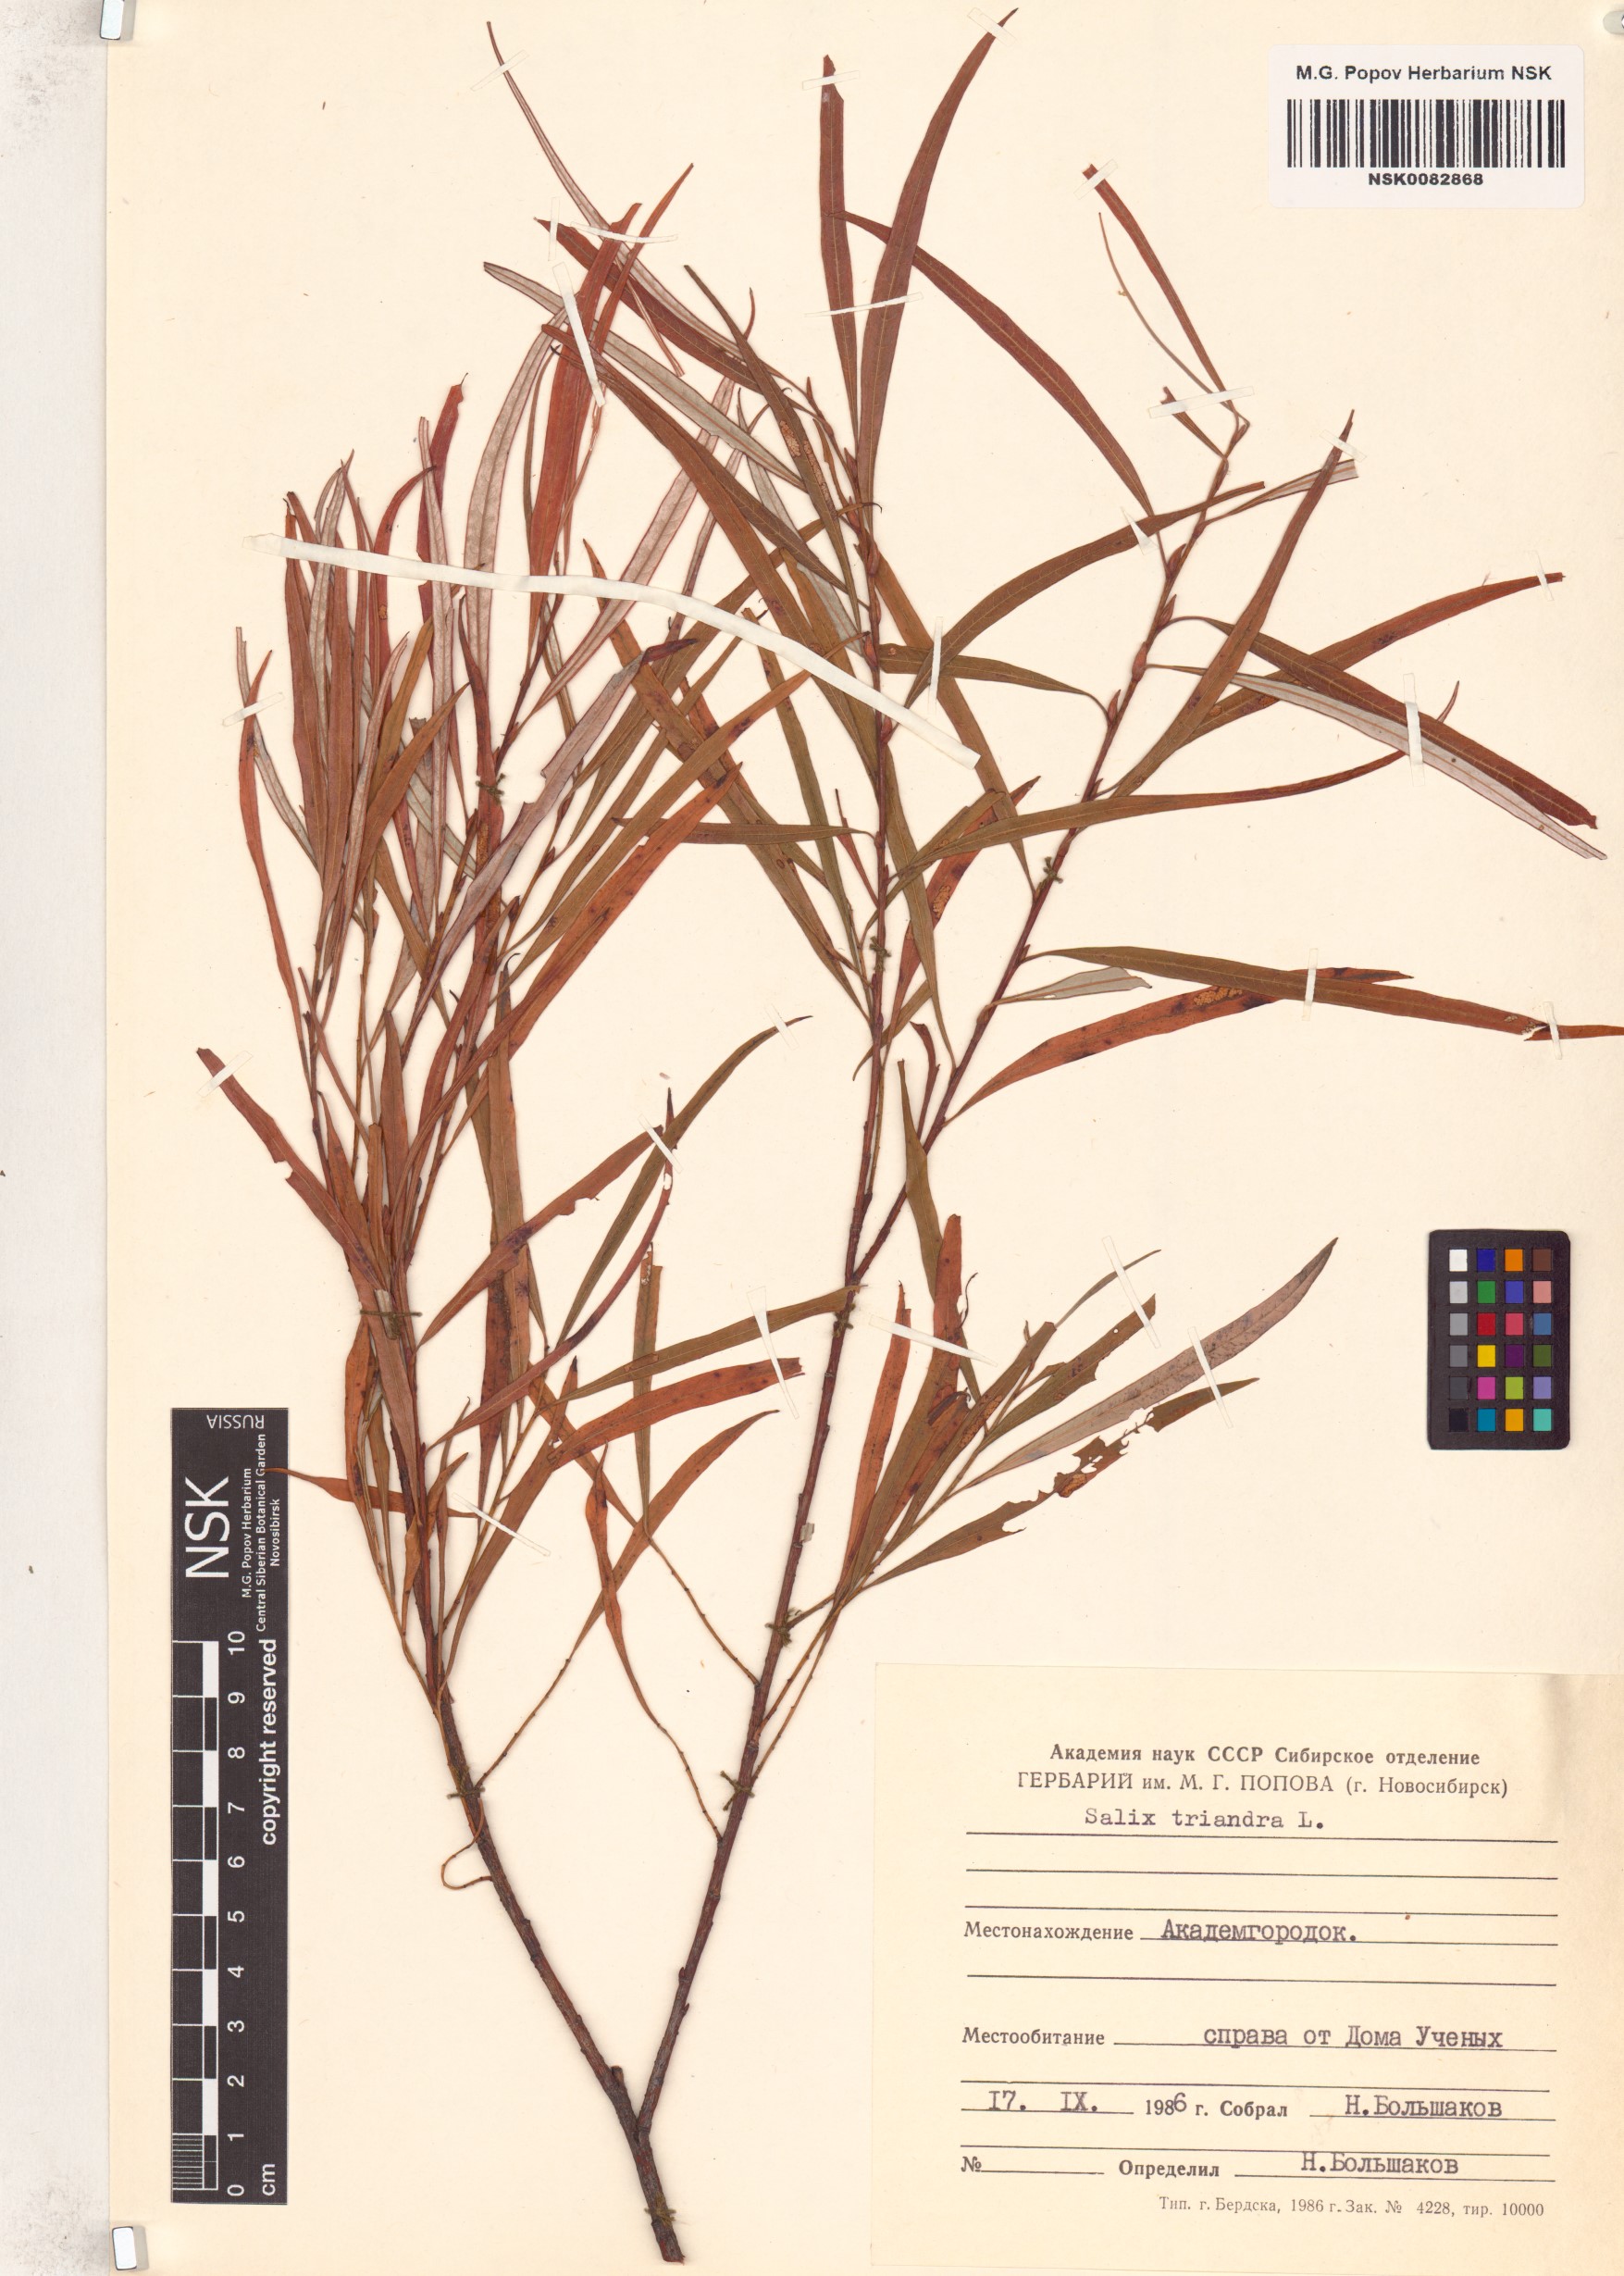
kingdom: Plantae
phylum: Tracheophyta
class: Magnoliopsida
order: Malpighiales
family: Salicaceae
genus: Salix
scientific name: Salix triandra
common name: Almond willow
